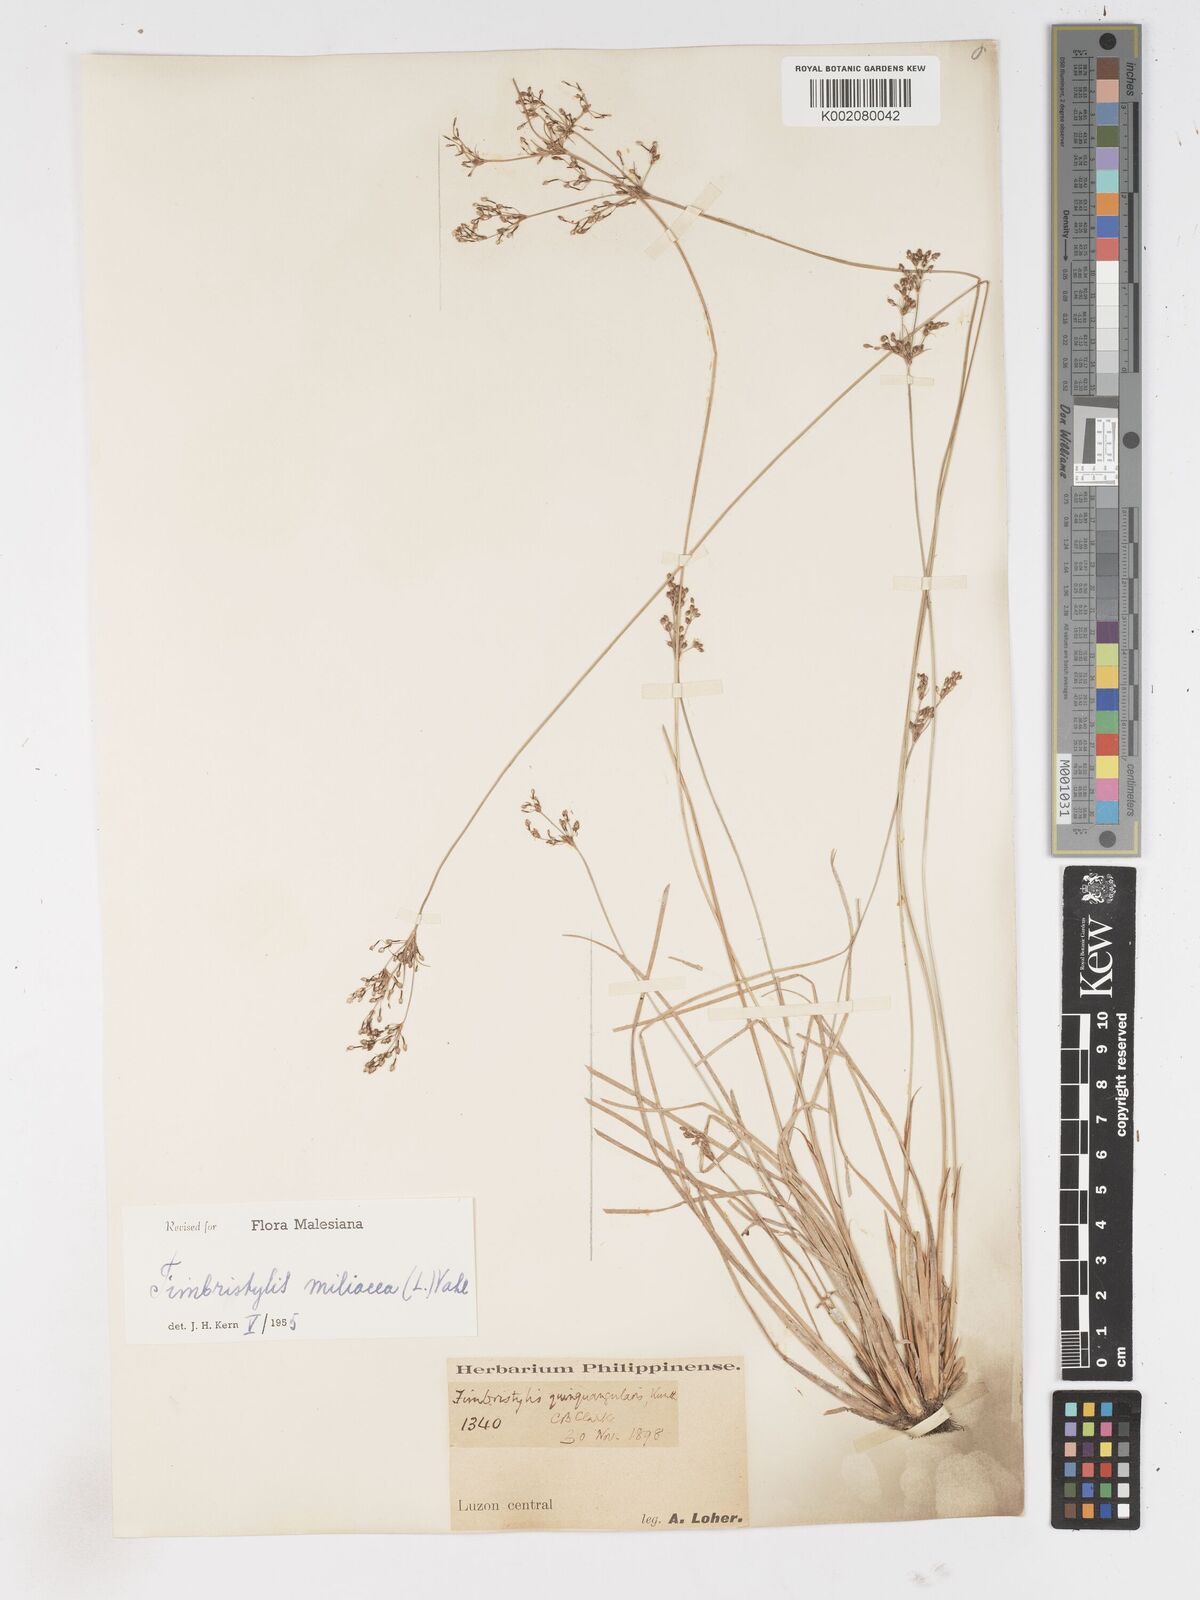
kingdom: Plantae
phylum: Tracheophyta
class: Liliopsida
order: Poales
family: Cyperaceae
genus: Fimbristylis
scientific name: Fimbristylis littoralis
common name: Fimbry
